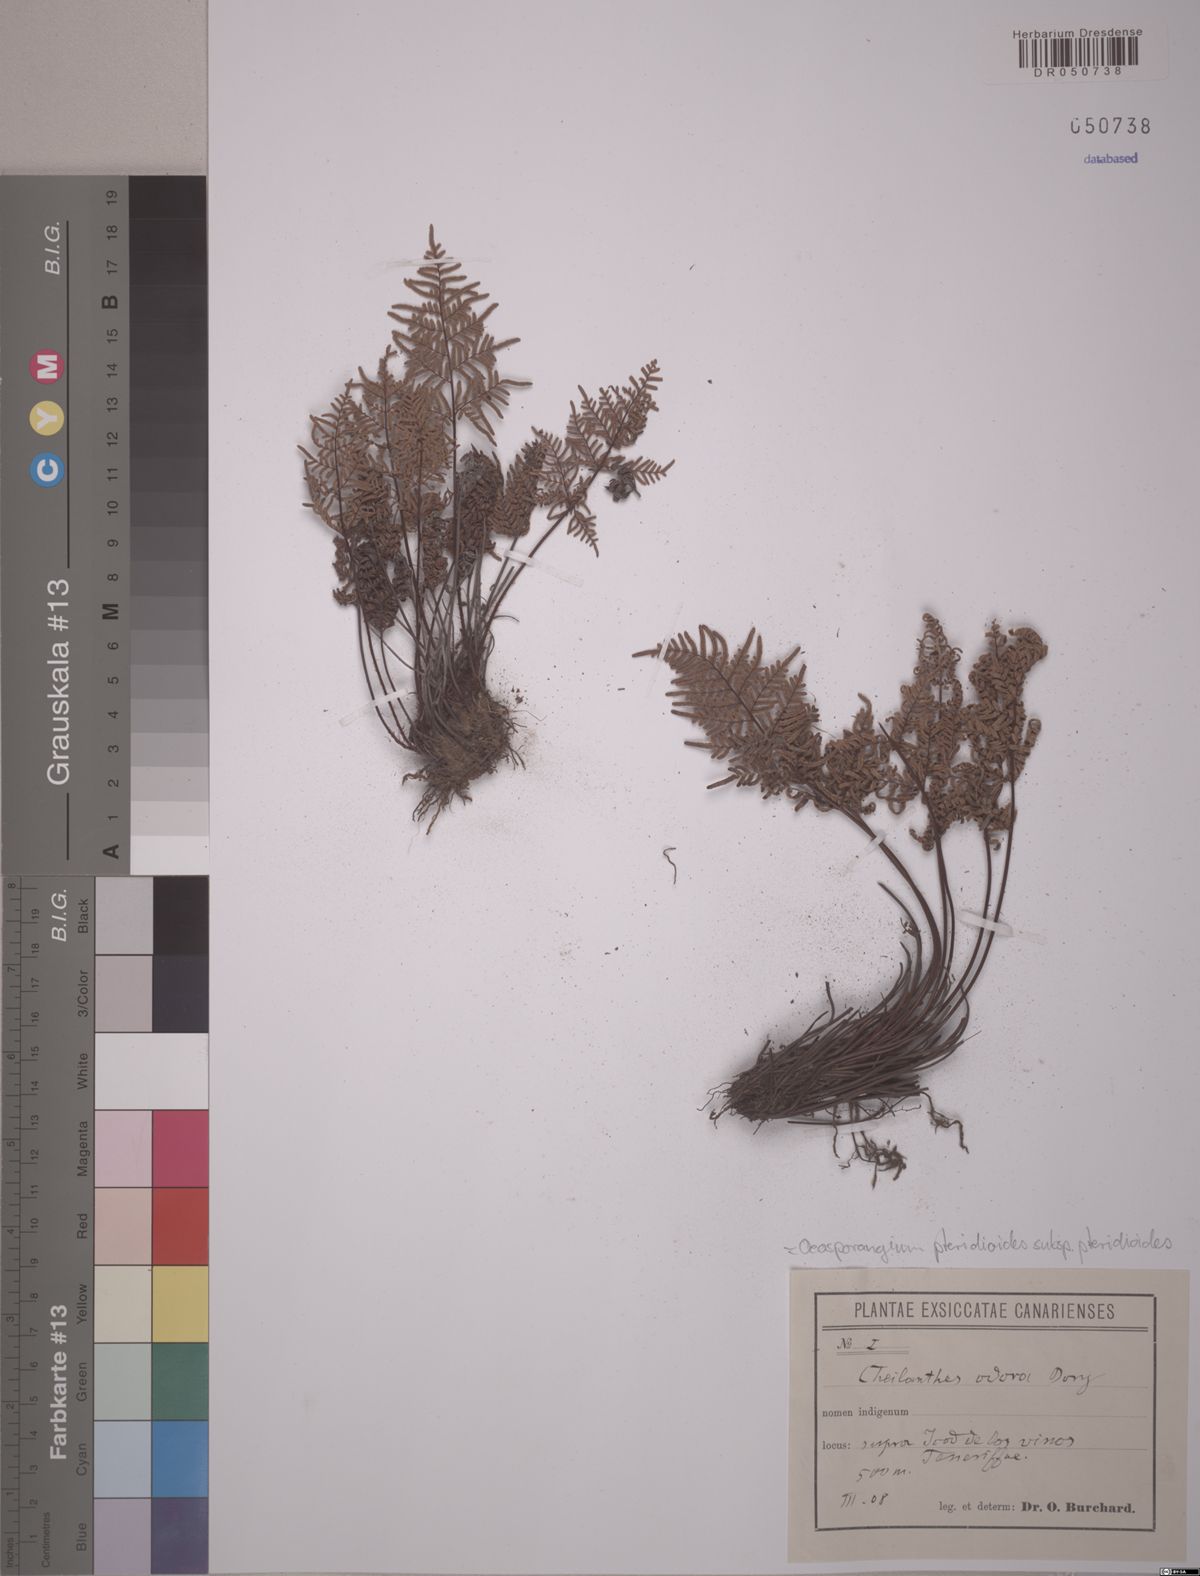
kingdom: Plantae
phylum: Tracheophyta
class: Polypodiopsida
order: Polypodiales
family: Pteridaceae
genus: Oeosporangium
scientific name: Oeosporangium pteridioides
